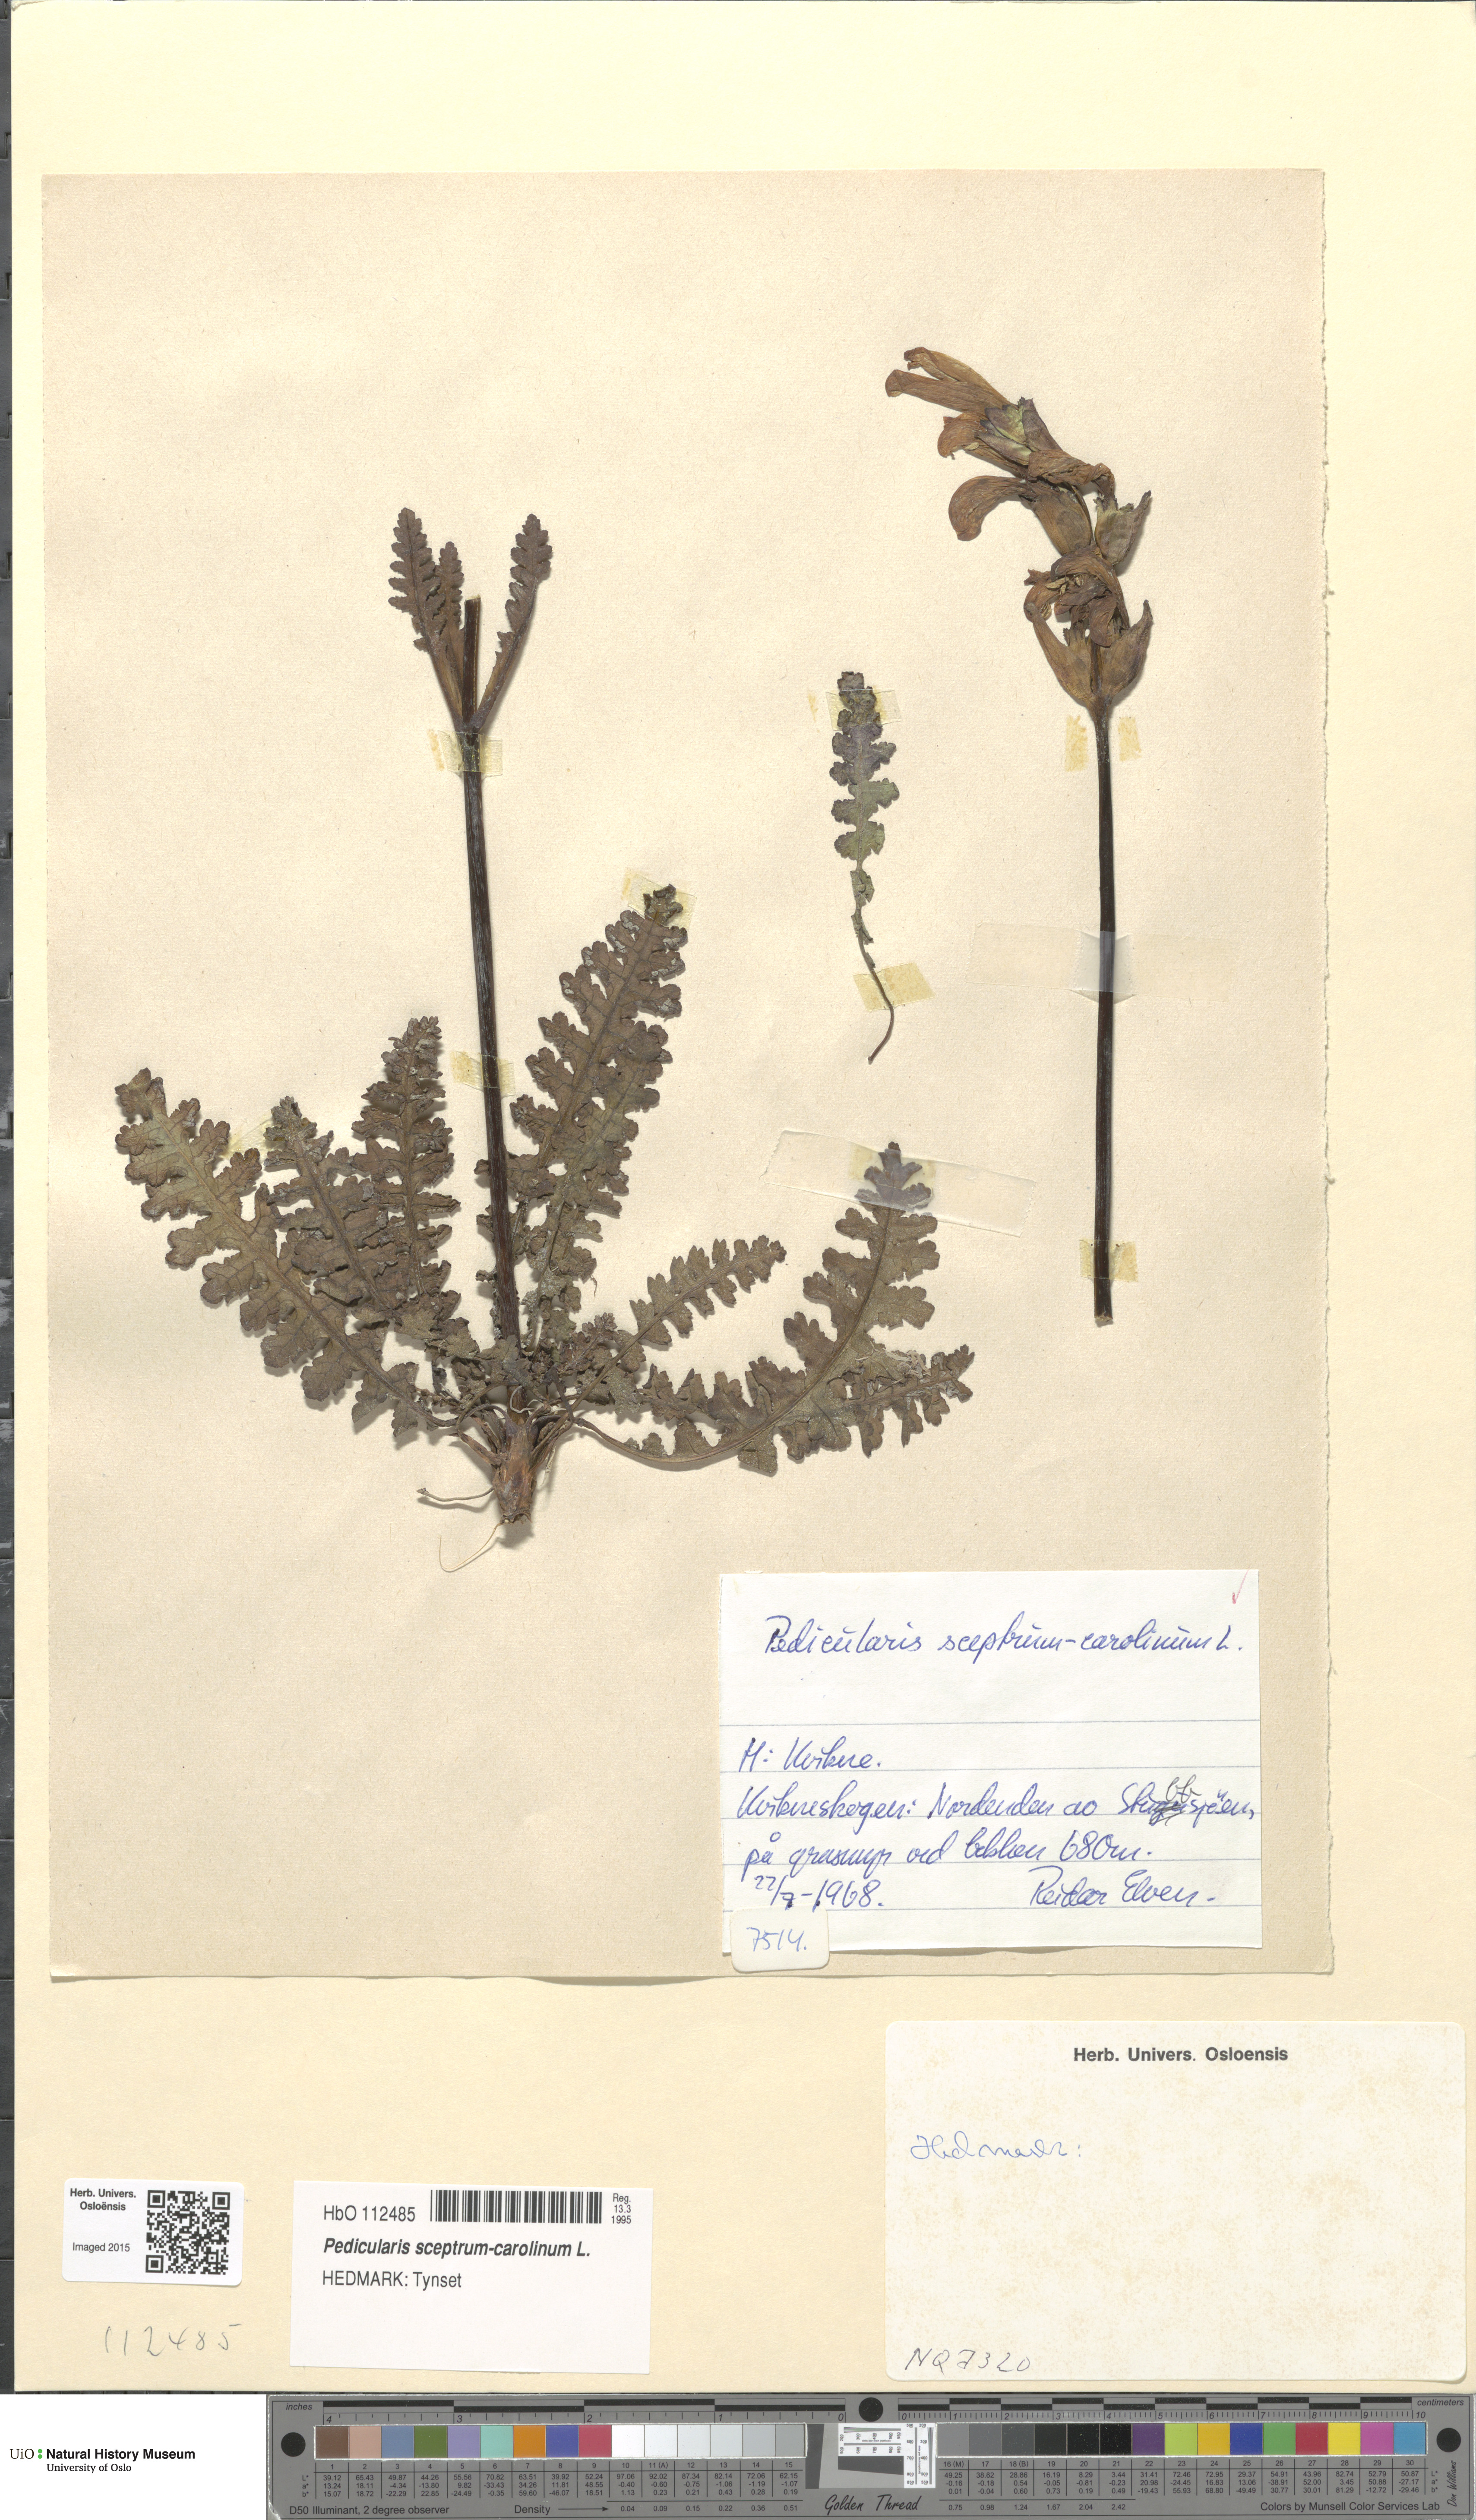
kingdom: Plantae
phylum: Tracheophyta
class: Magnoliopsida
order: Lamiales
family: Orobanchaceae
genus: Pedicularis
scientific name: Pedicularis sceptrum-carolinum
